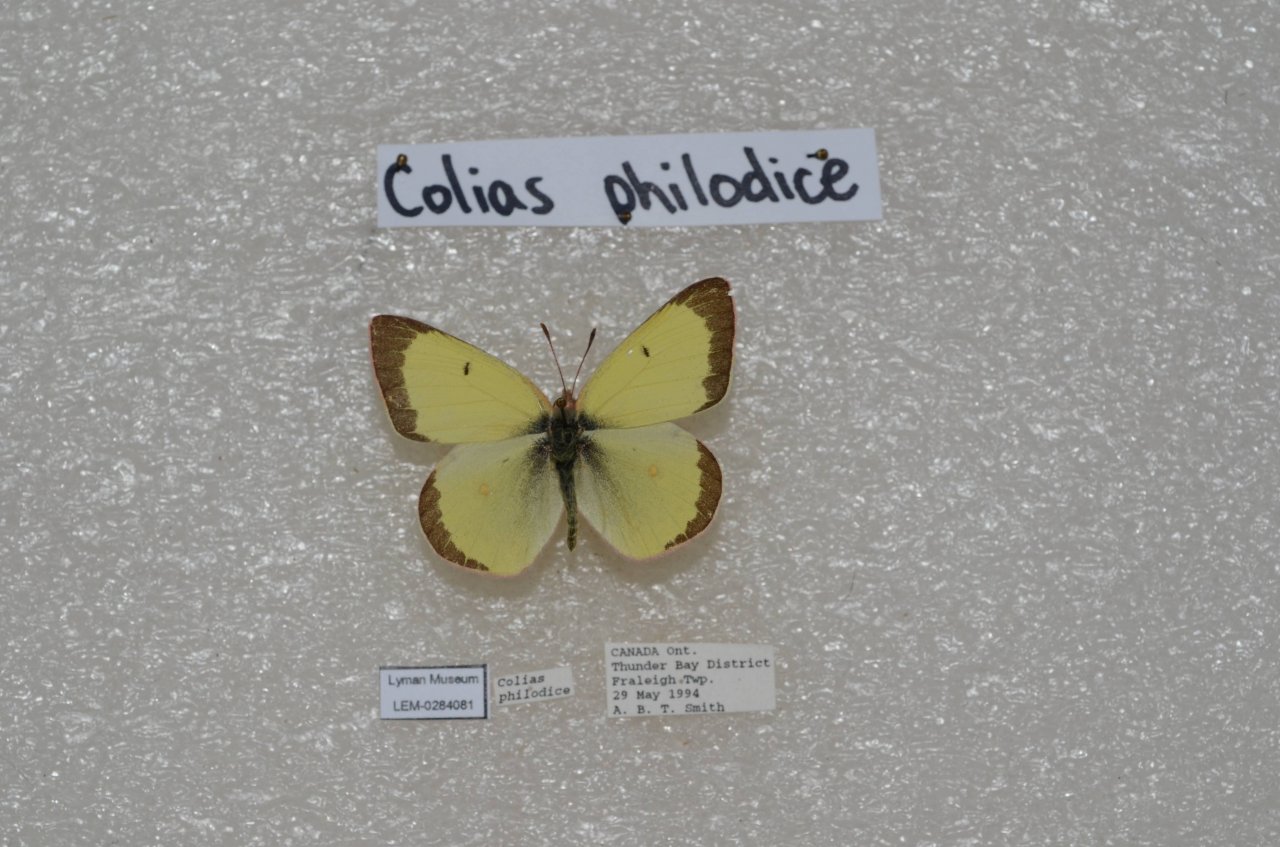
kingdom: Animalia
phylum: Arthropoda
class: Insecta
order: Lepidoptera
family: Pieridae
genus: Colias
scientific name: Colias philodice
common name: Clouded Sulphur
